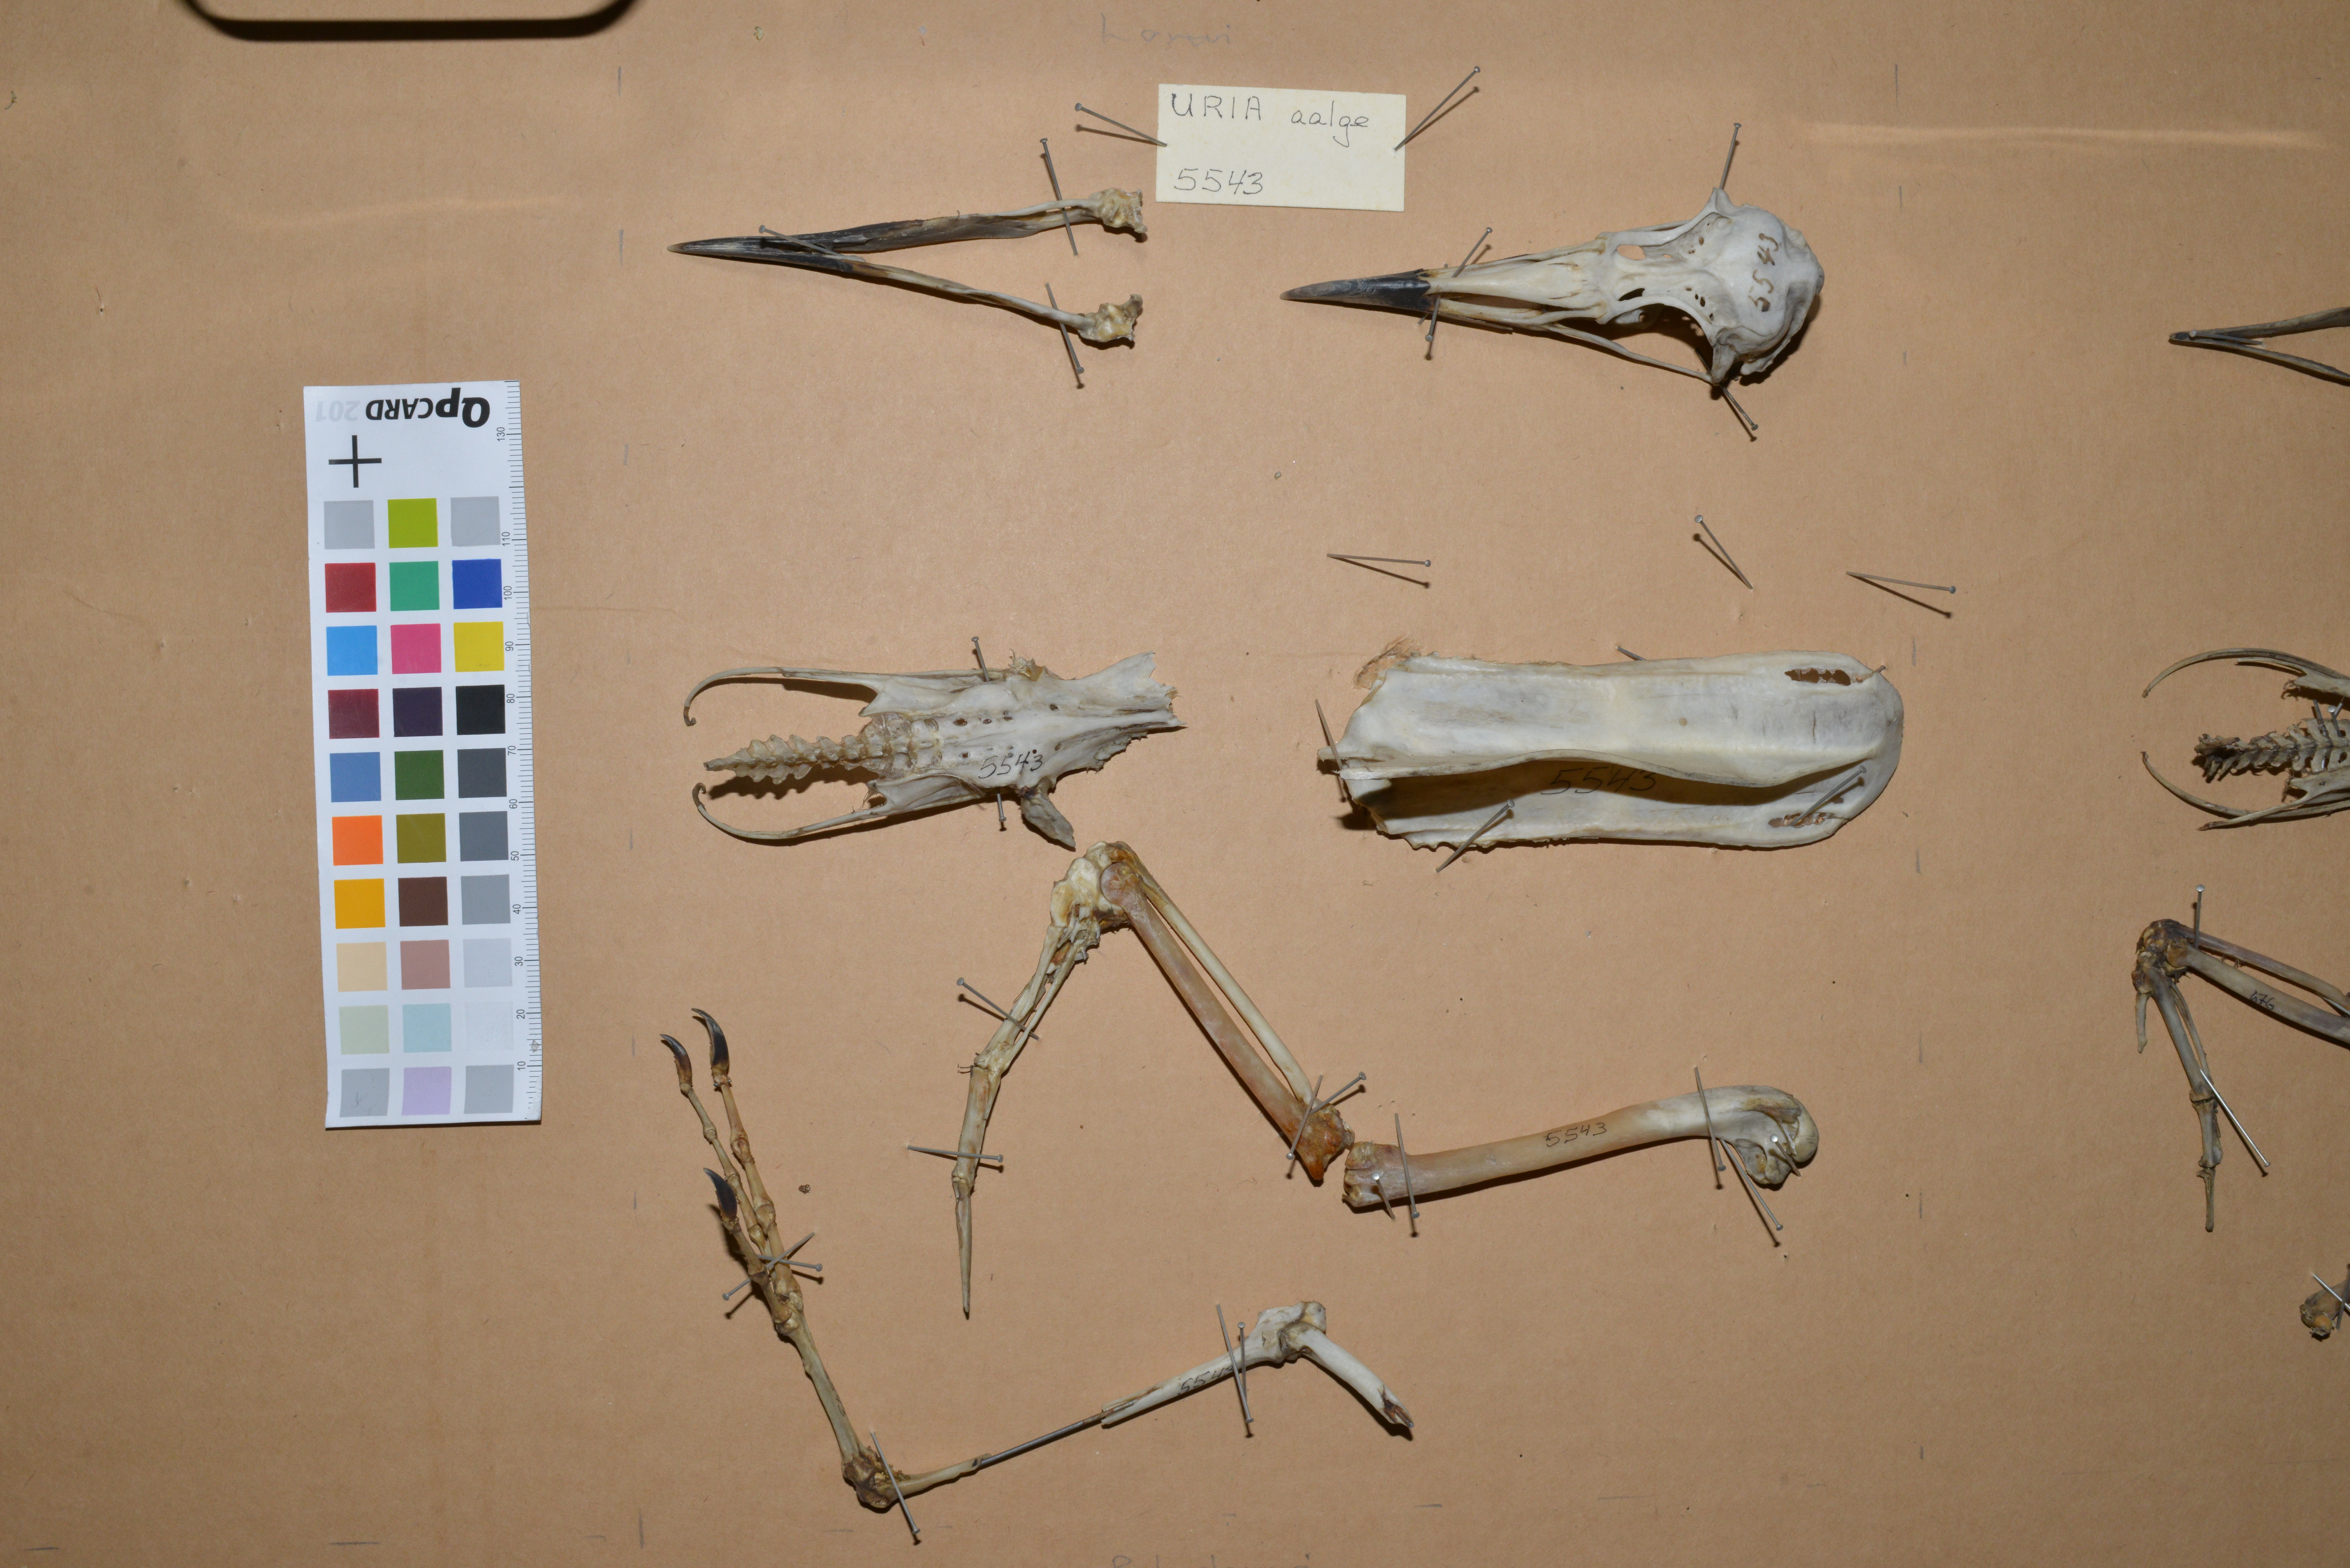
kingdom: Animalia
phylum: Chordata
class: Aves
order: Charadriiformes
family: Alcidae
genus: Uria
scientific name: Uria lomvia
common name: Thick-billed murre
